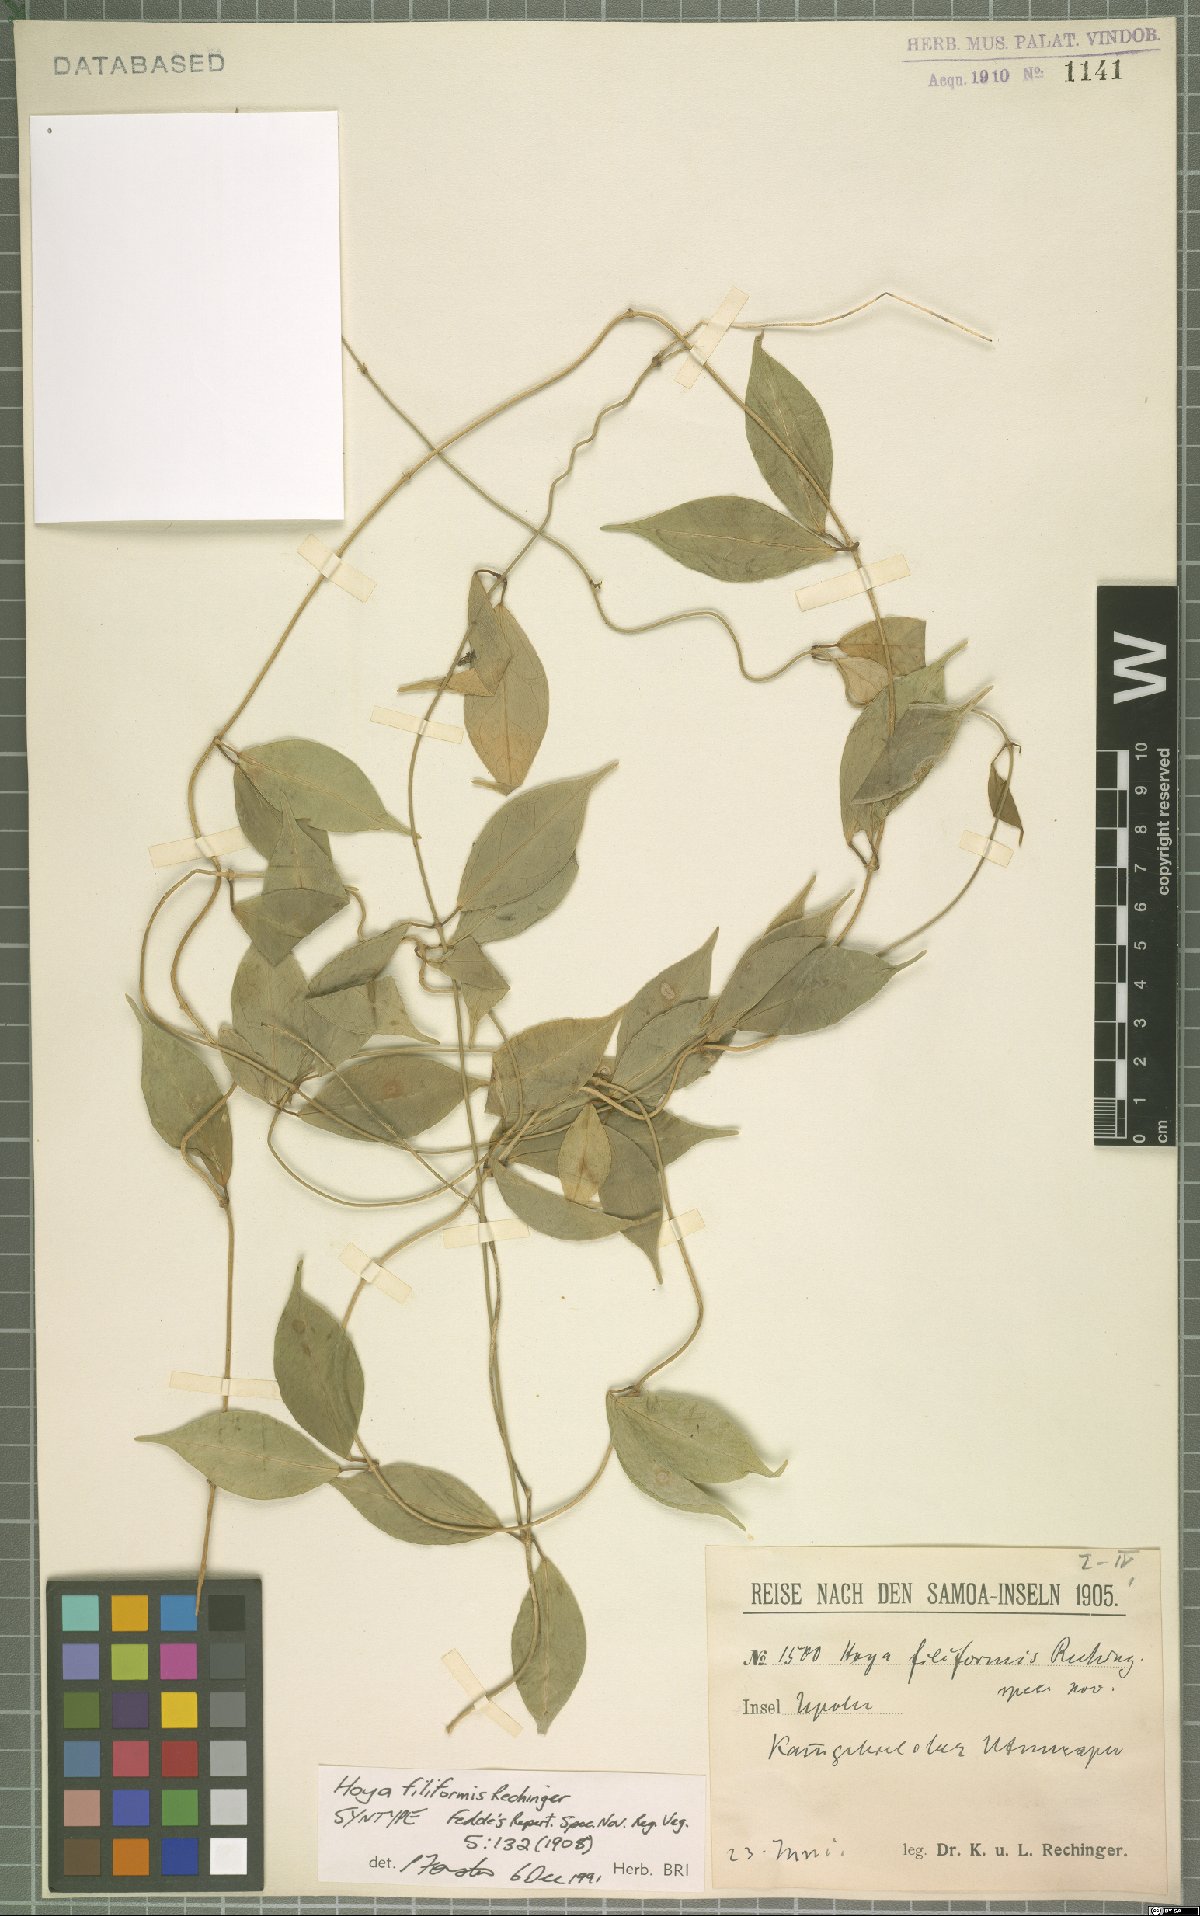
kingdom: Plantae
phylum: Tracheophyta
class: Magnoliopsida
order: Gentianales
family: Apocynaceae
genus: Hoya
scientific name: Hoya filiformis
